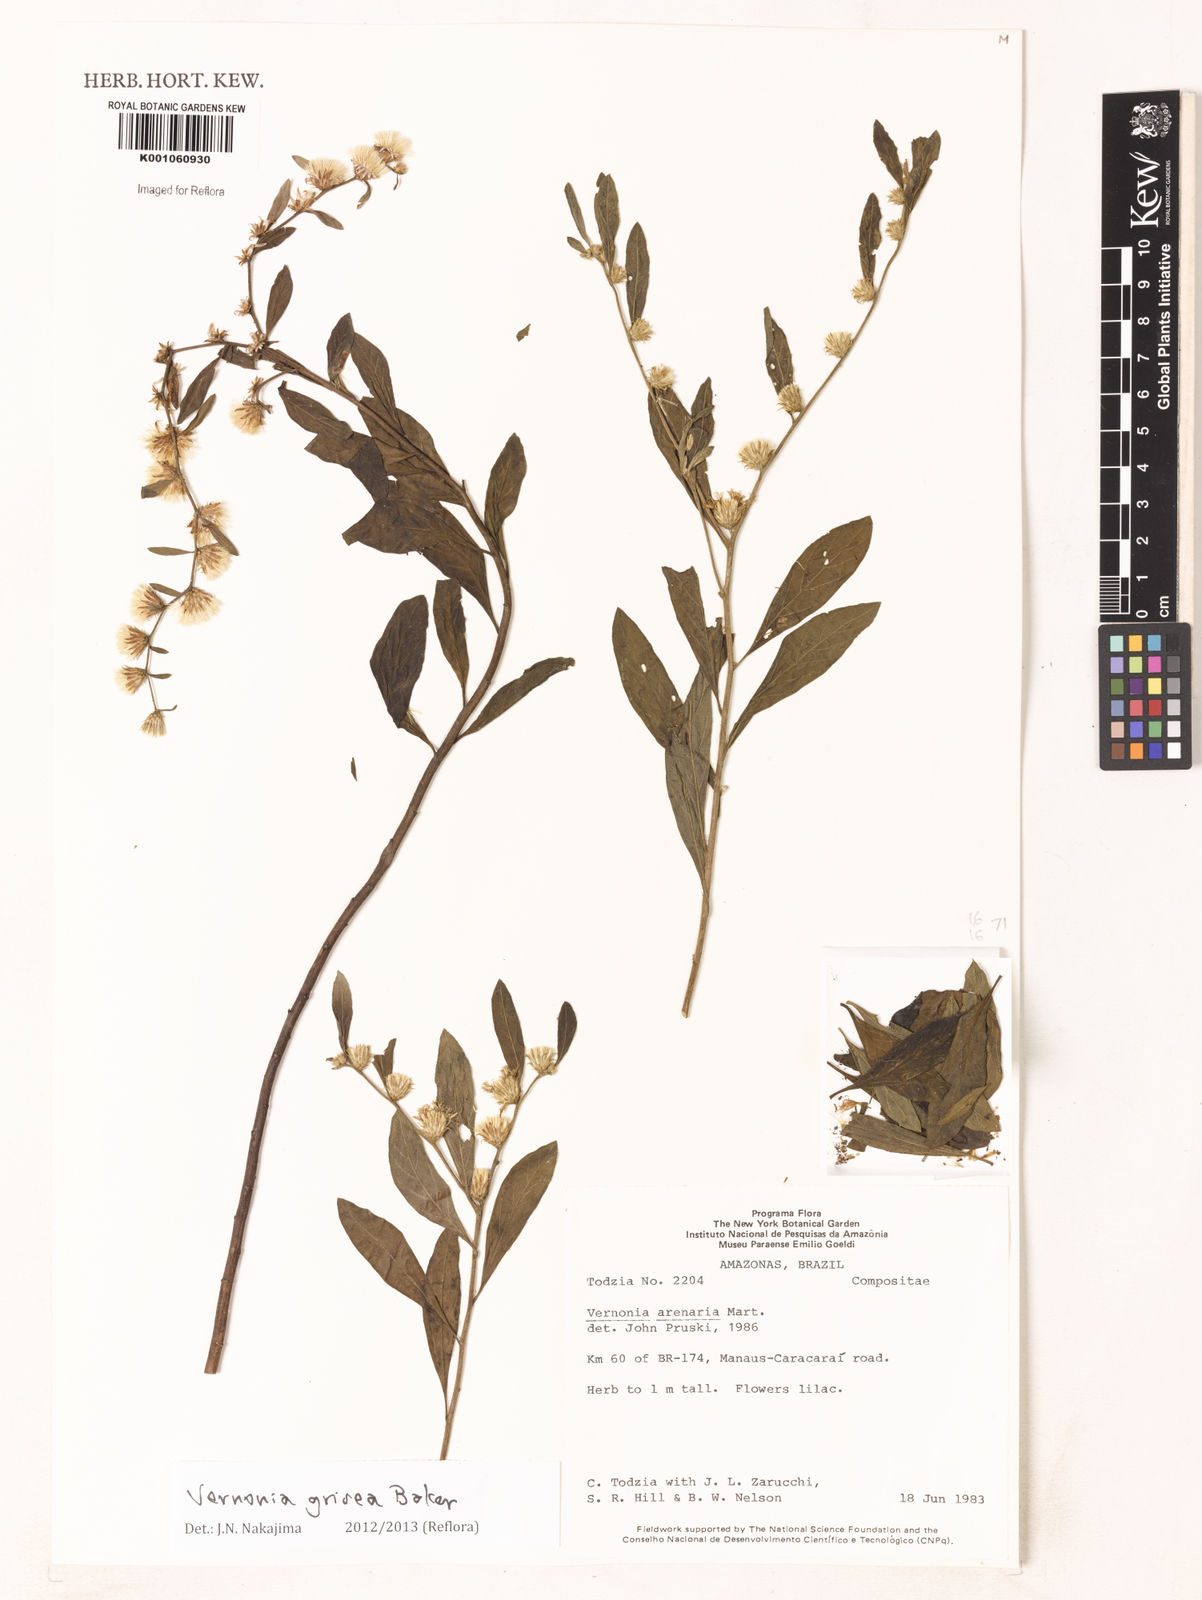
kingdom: Plantae
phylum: Tracheophyta
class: Magnoliopsida
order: Asterales
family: Asteraceae
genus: Lepidaploa
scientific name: Lepidaploa grisea
